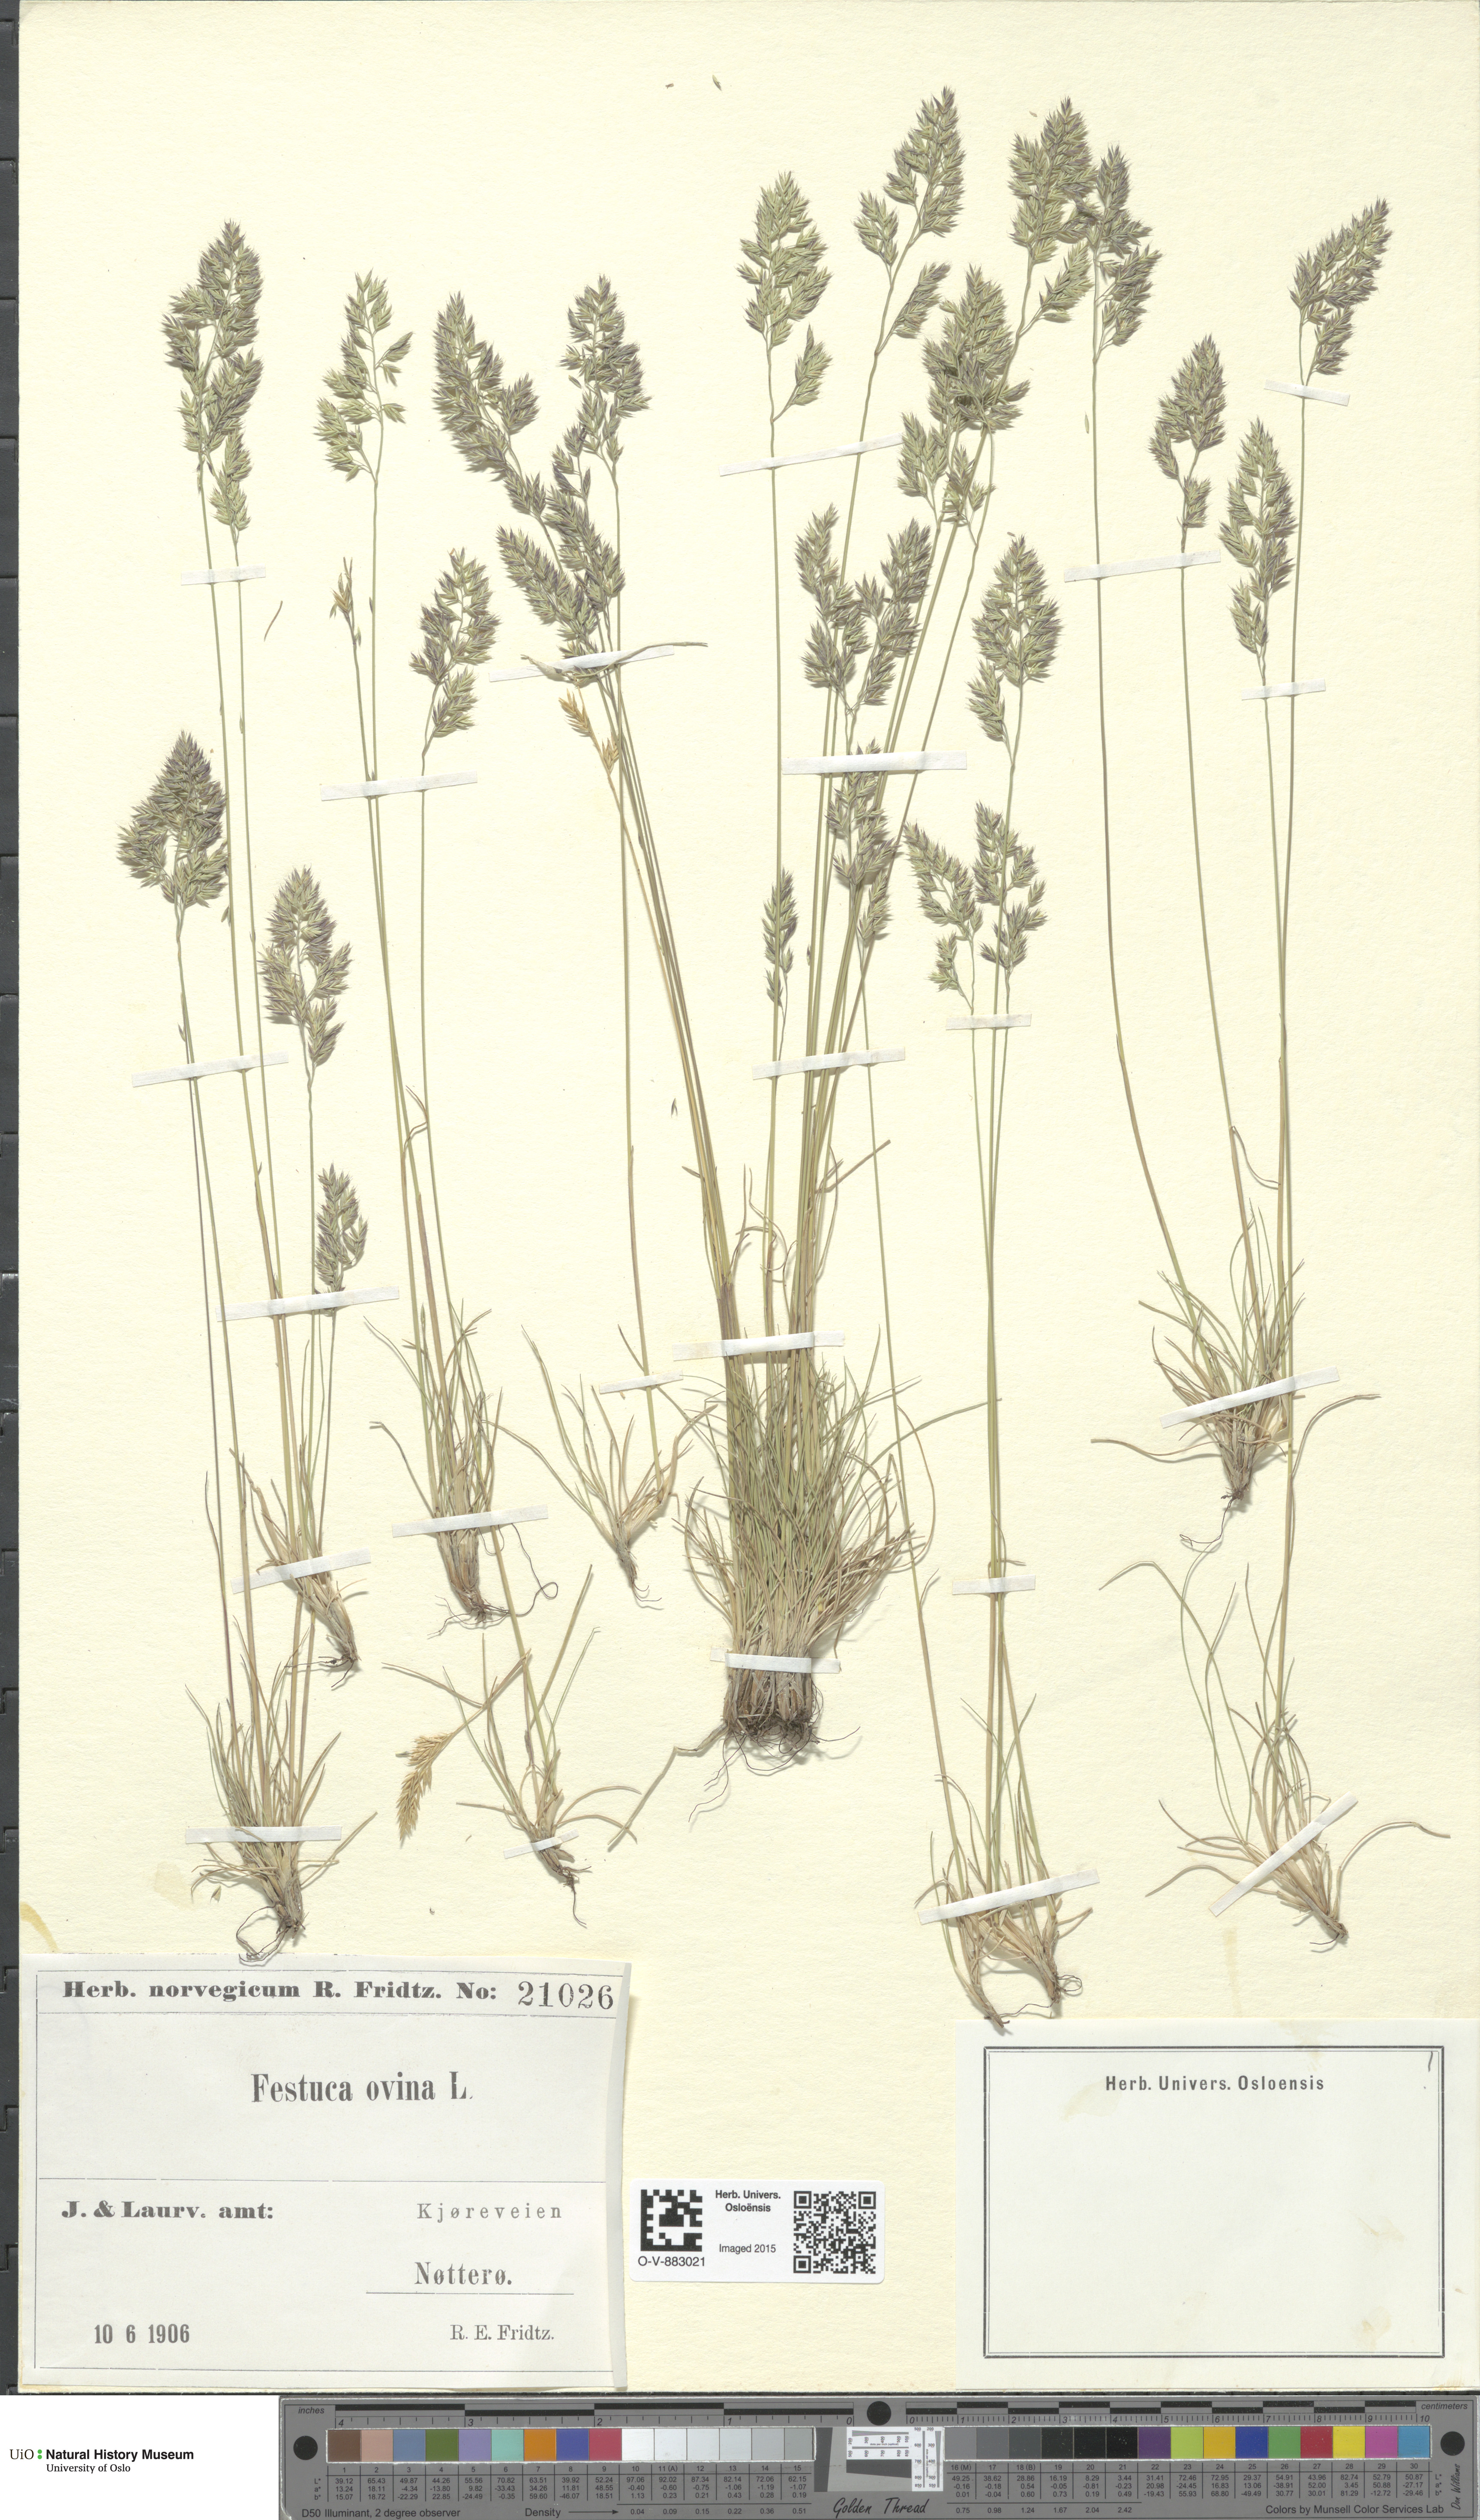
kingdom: Plantae
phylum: Tracheophyta
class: Liliopsida
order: Poales
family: Poaceae
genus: Festuca
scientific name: Festuca ovina
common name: Sheep fescue
